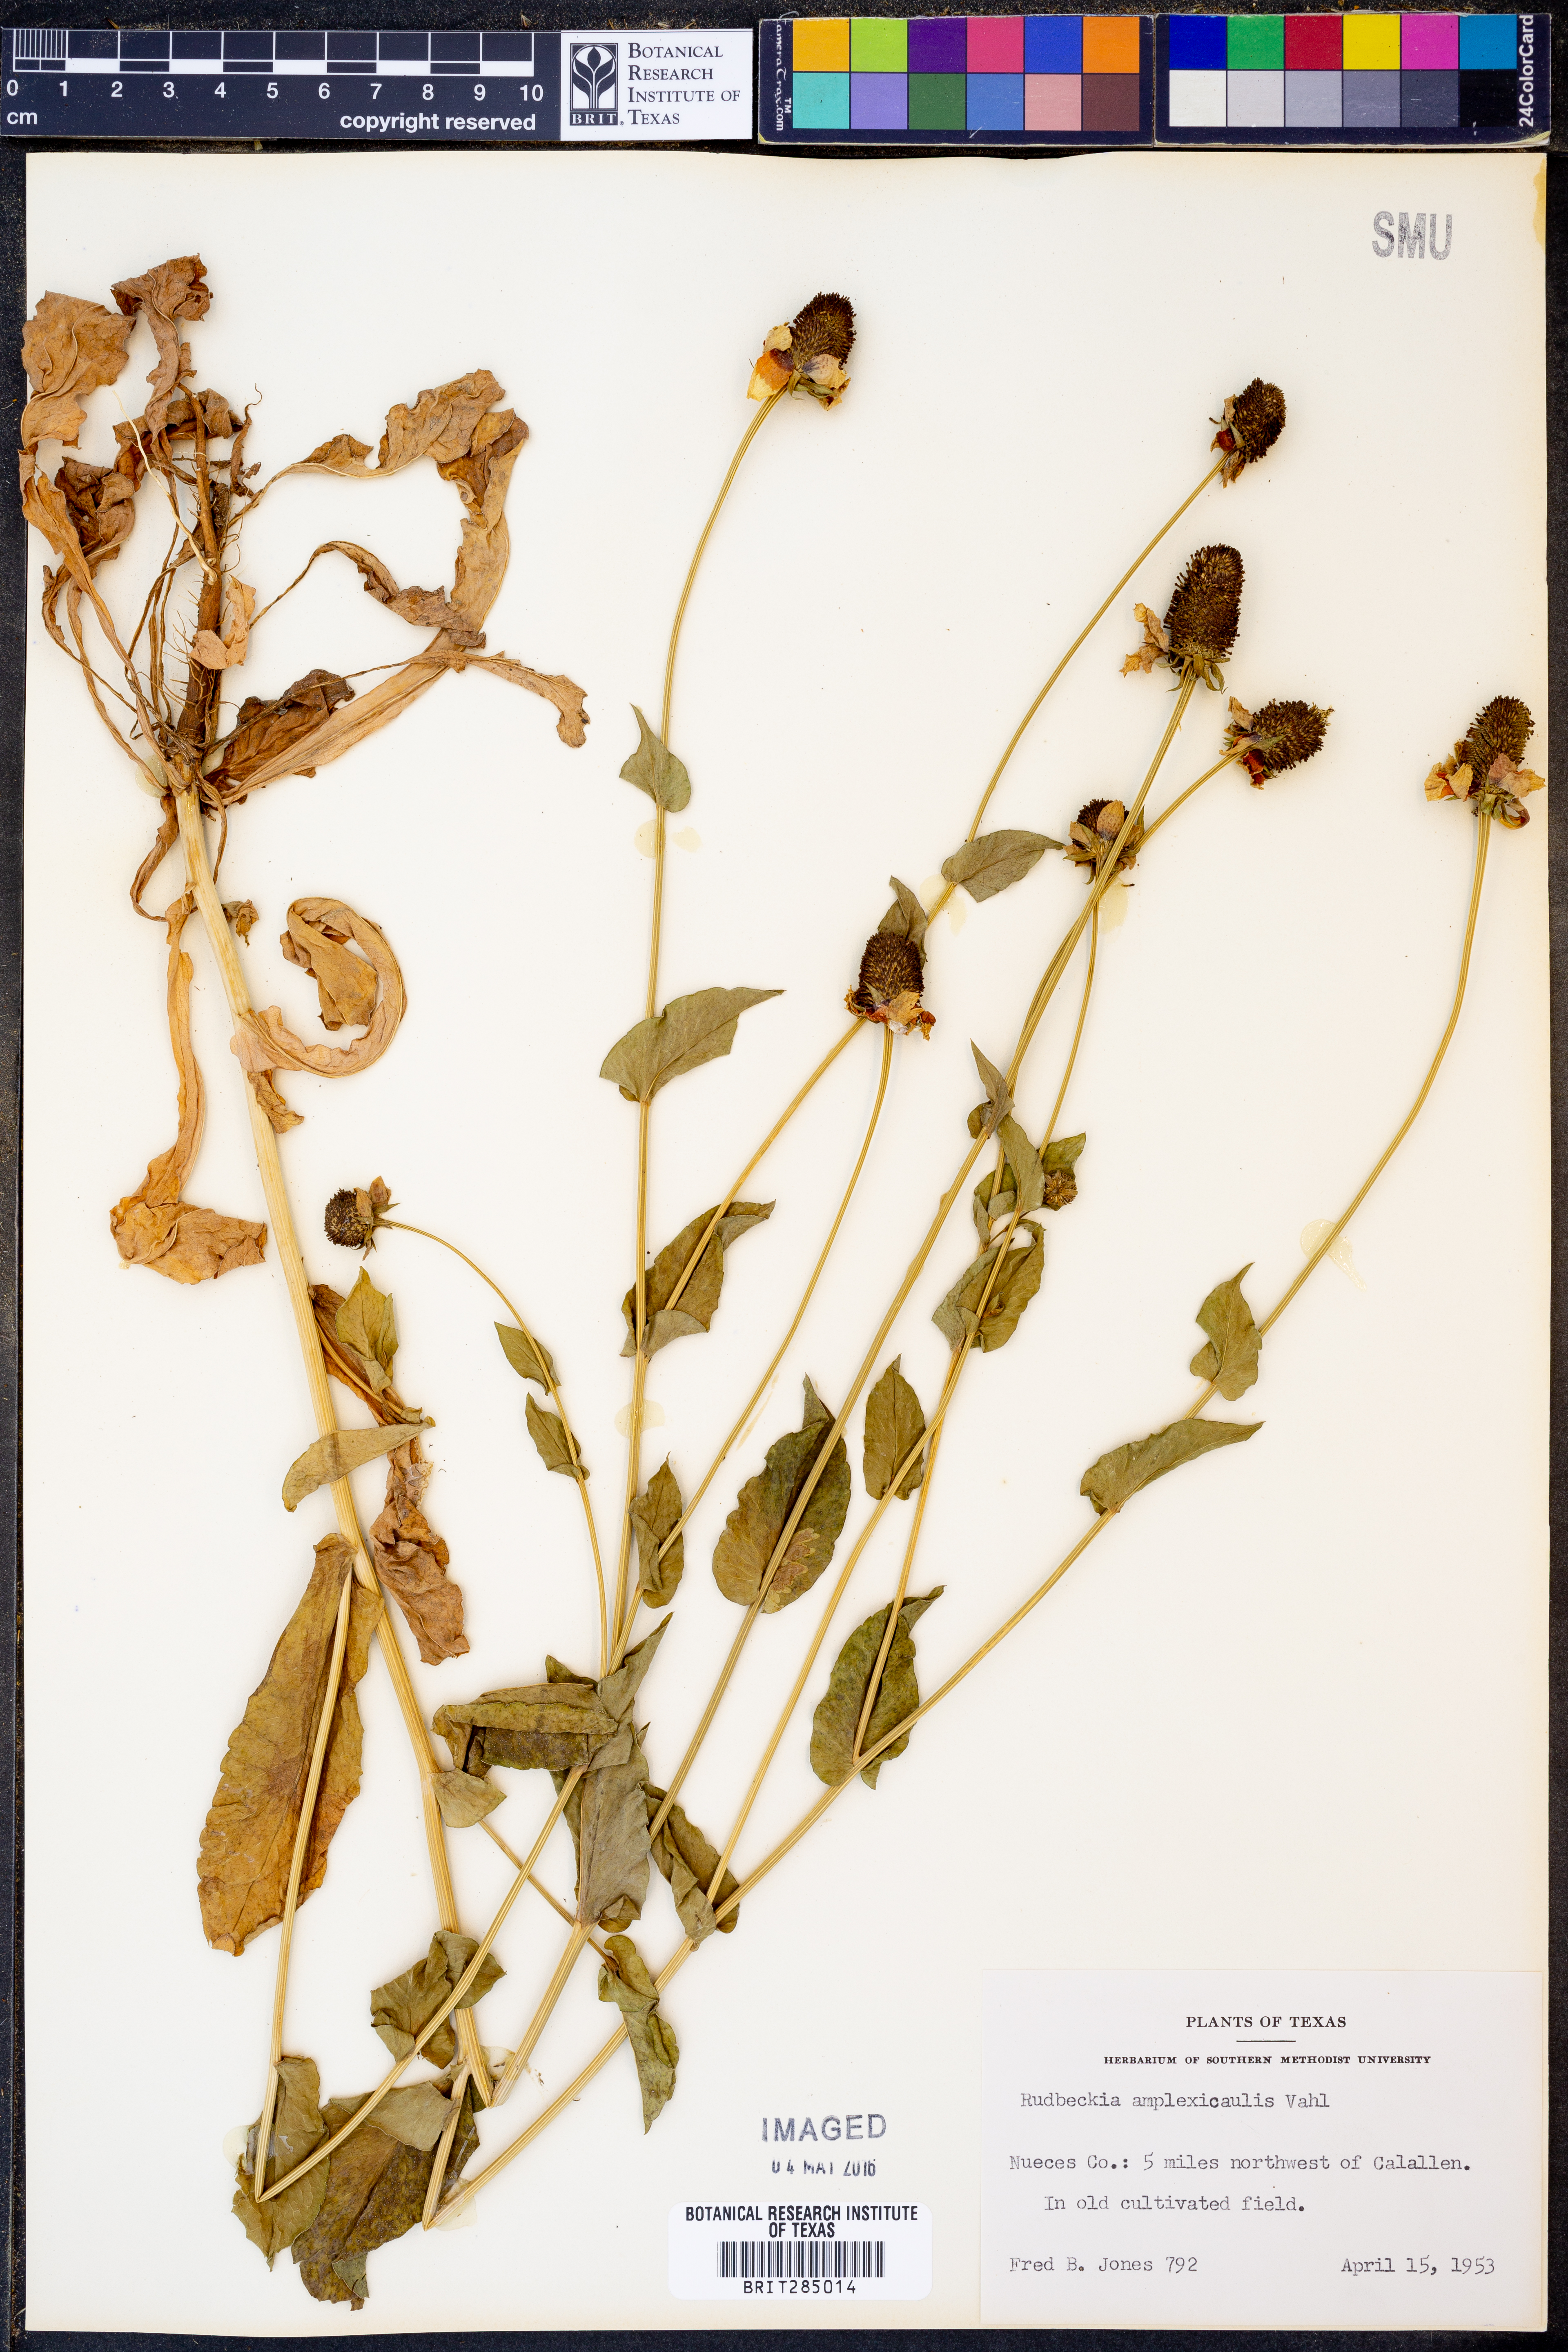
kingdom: Plantae
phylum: Tracheophyta
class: Magnoliopsida
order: Asterales
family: Asteraceae
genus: Rudbeckia
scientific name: Rudbeckia amplexicaulis
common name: Clasping-leaf coneflower
